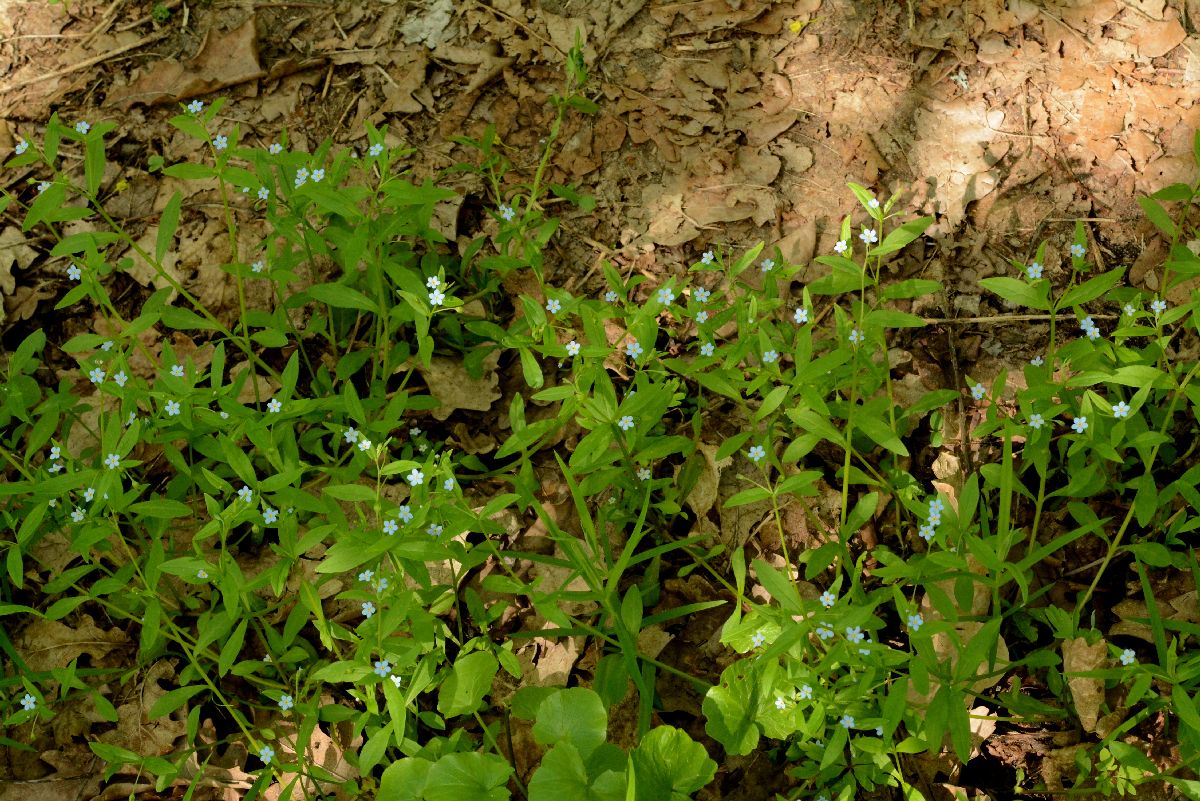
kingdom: Plantae
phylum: Tracheophyta
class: Magnoliopsida
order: Boraginales
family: Boraginaceae
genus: Memoremea
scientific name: Memoremea scorpioides
